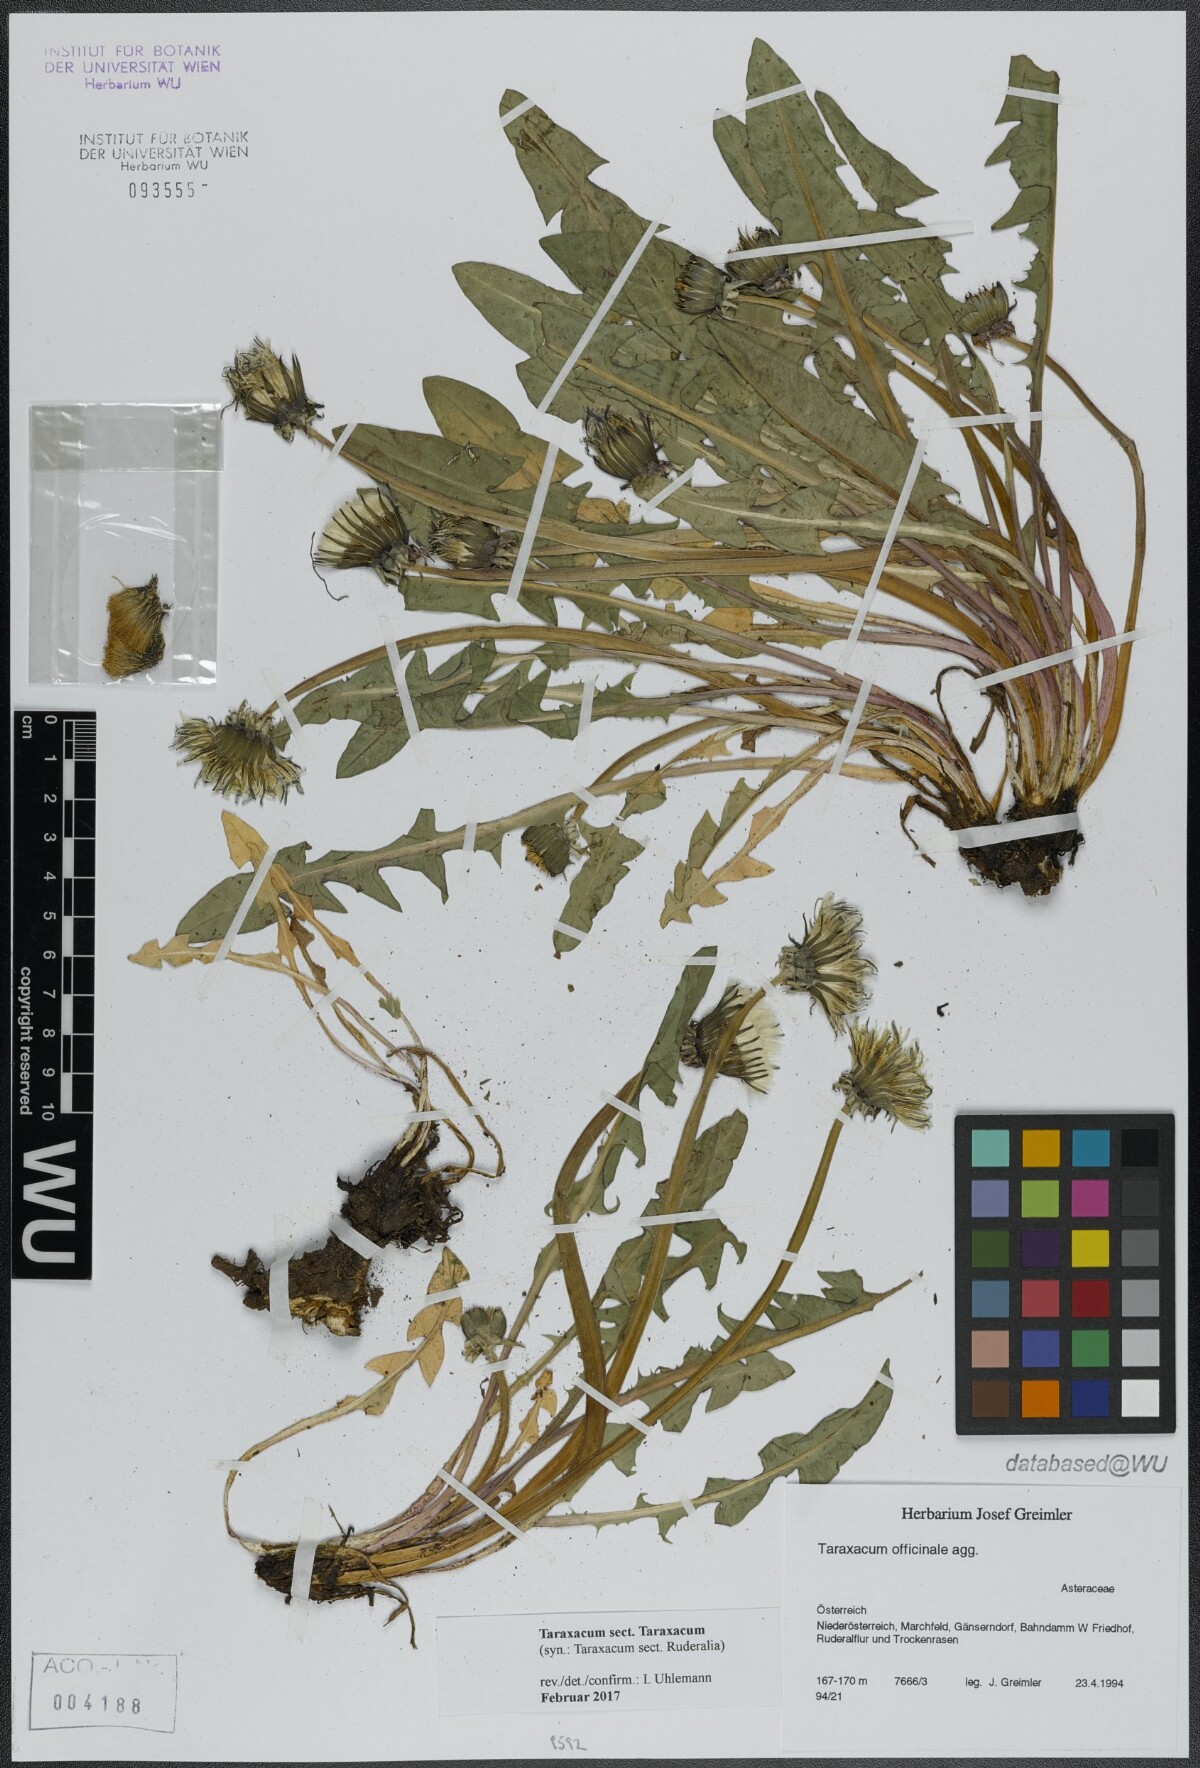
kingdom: Plantae
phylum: Tracheophyta
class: Magnoliopsida
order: Asterales
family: Asteraceae
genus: Taraxacum
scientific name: Taraxacum
